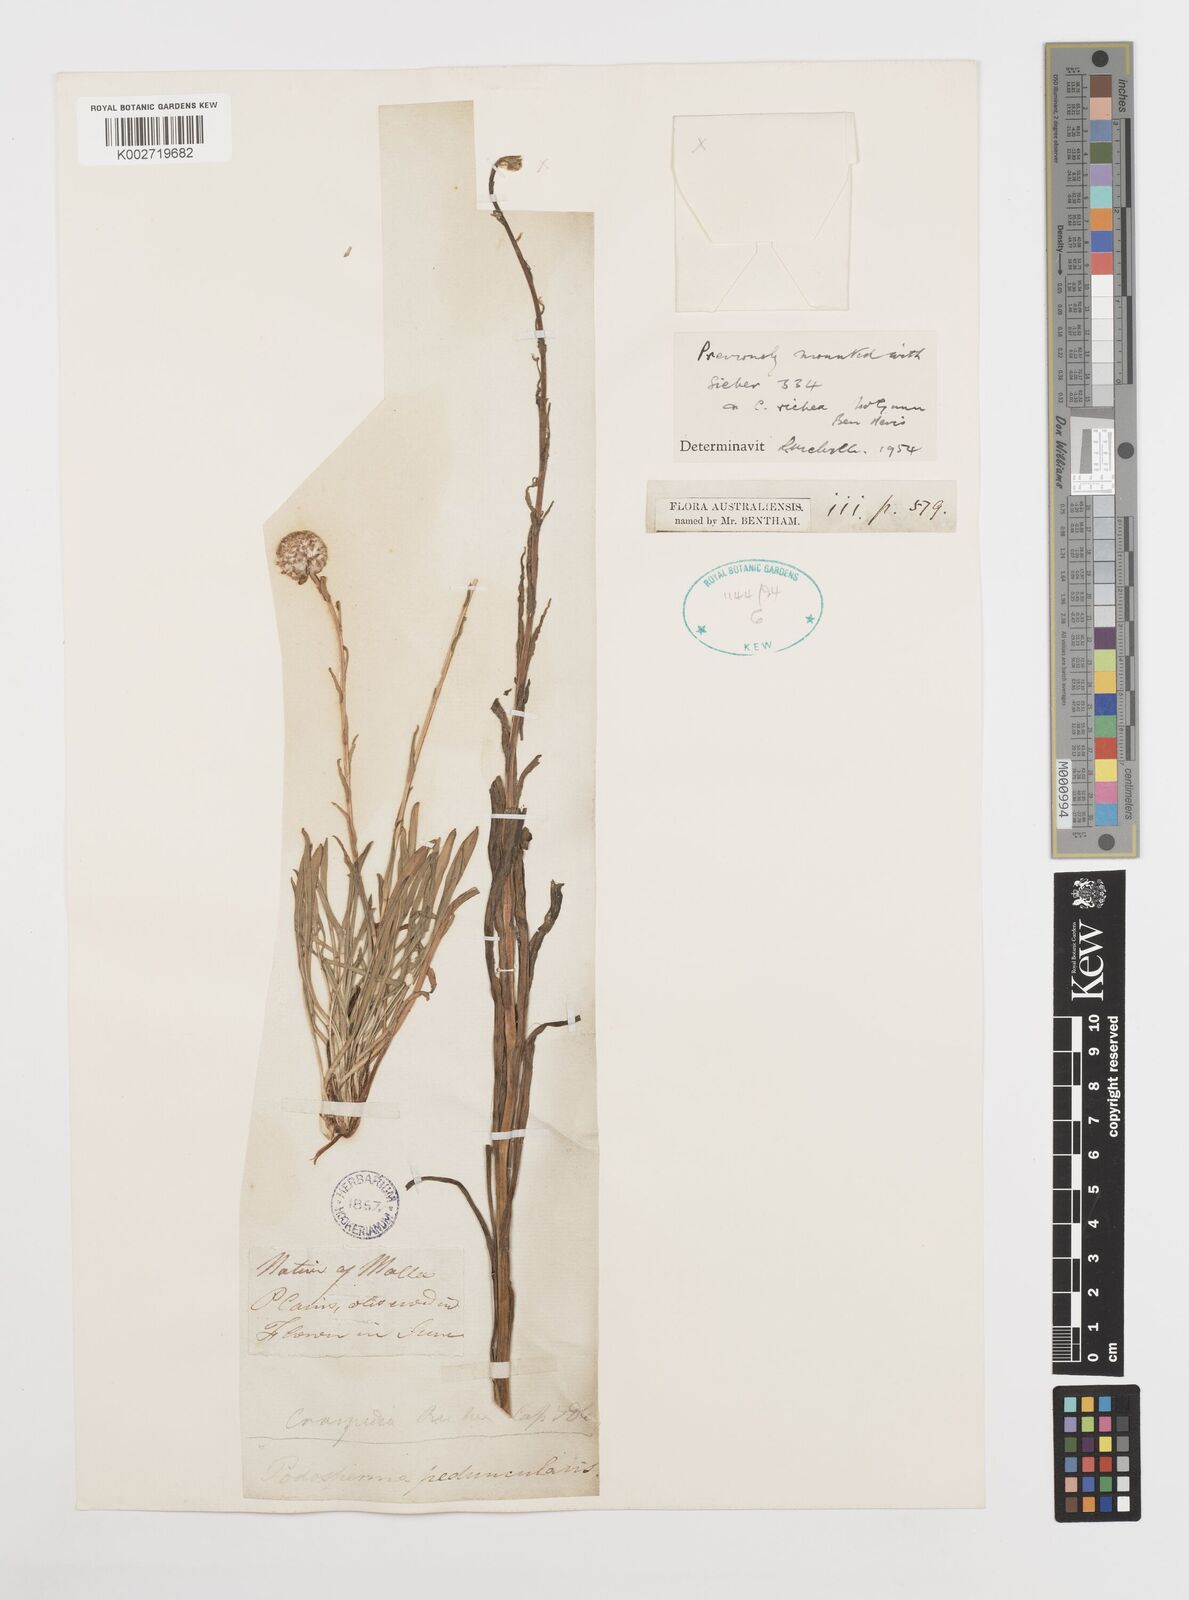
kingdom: Plantae
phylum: Tracheophyta
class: Magnoliopsida
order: Asterales
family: Asteraceae
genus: Craspedia
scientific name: Craspedia glauca
